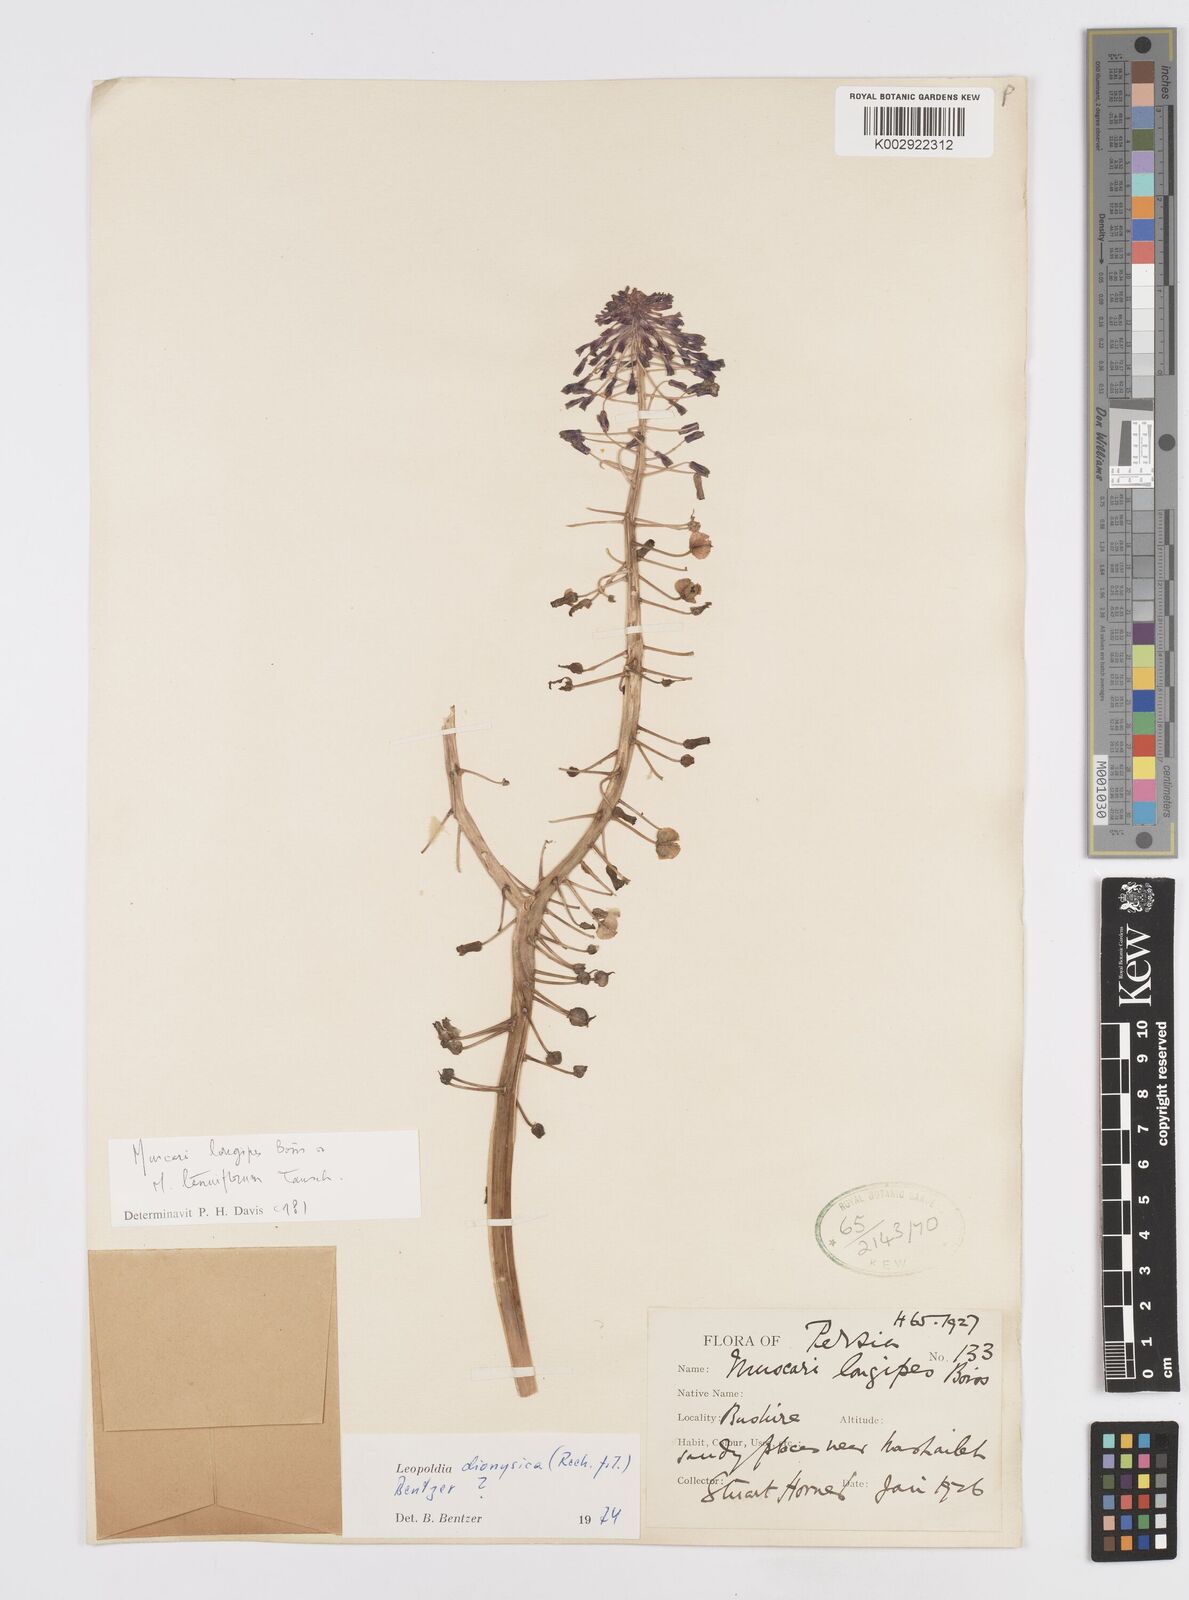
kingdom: Plantae
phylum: Tracheophyta
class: Liliopsida
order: Asparagales
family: Asparagaceae
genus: Muscari
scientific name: Muscari weissii
